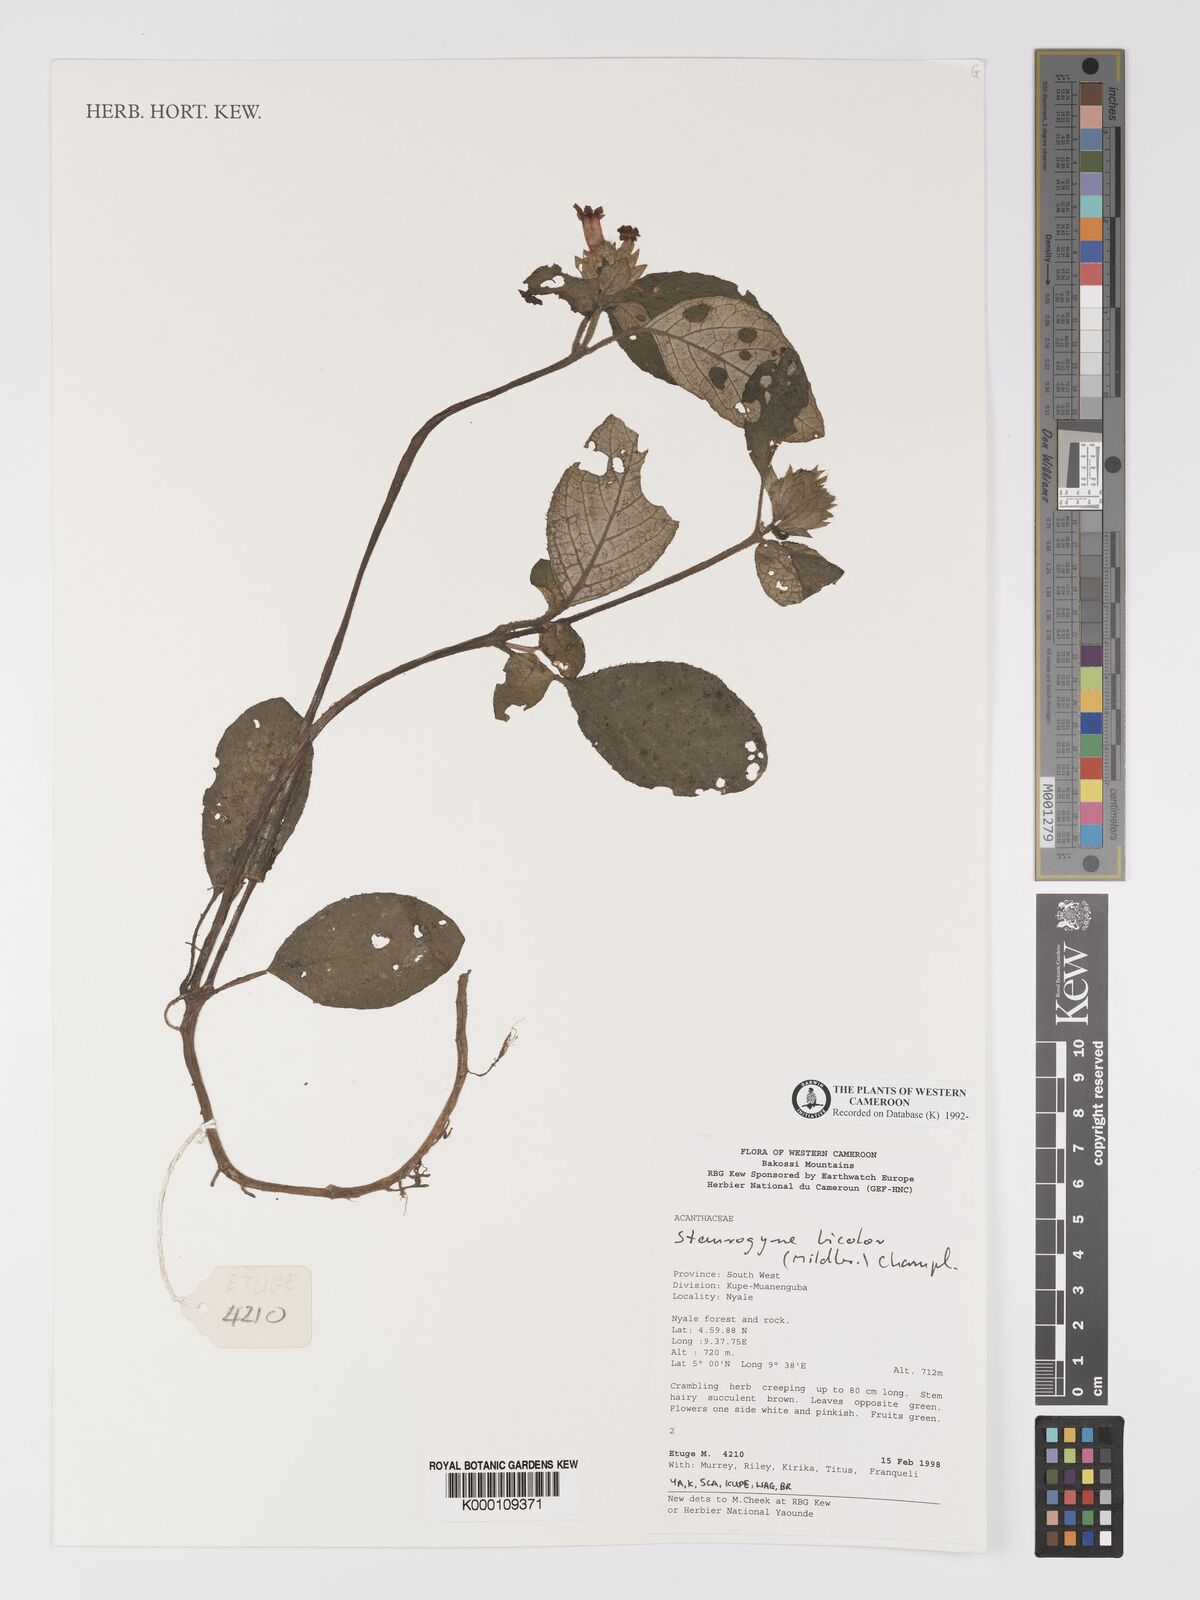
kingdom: Plantae
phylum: Tracheophyta
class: Magnoliopsida
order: Lamiales
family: Acanthaceae
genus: Staurogyne
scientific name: Staurogyne bicolor
